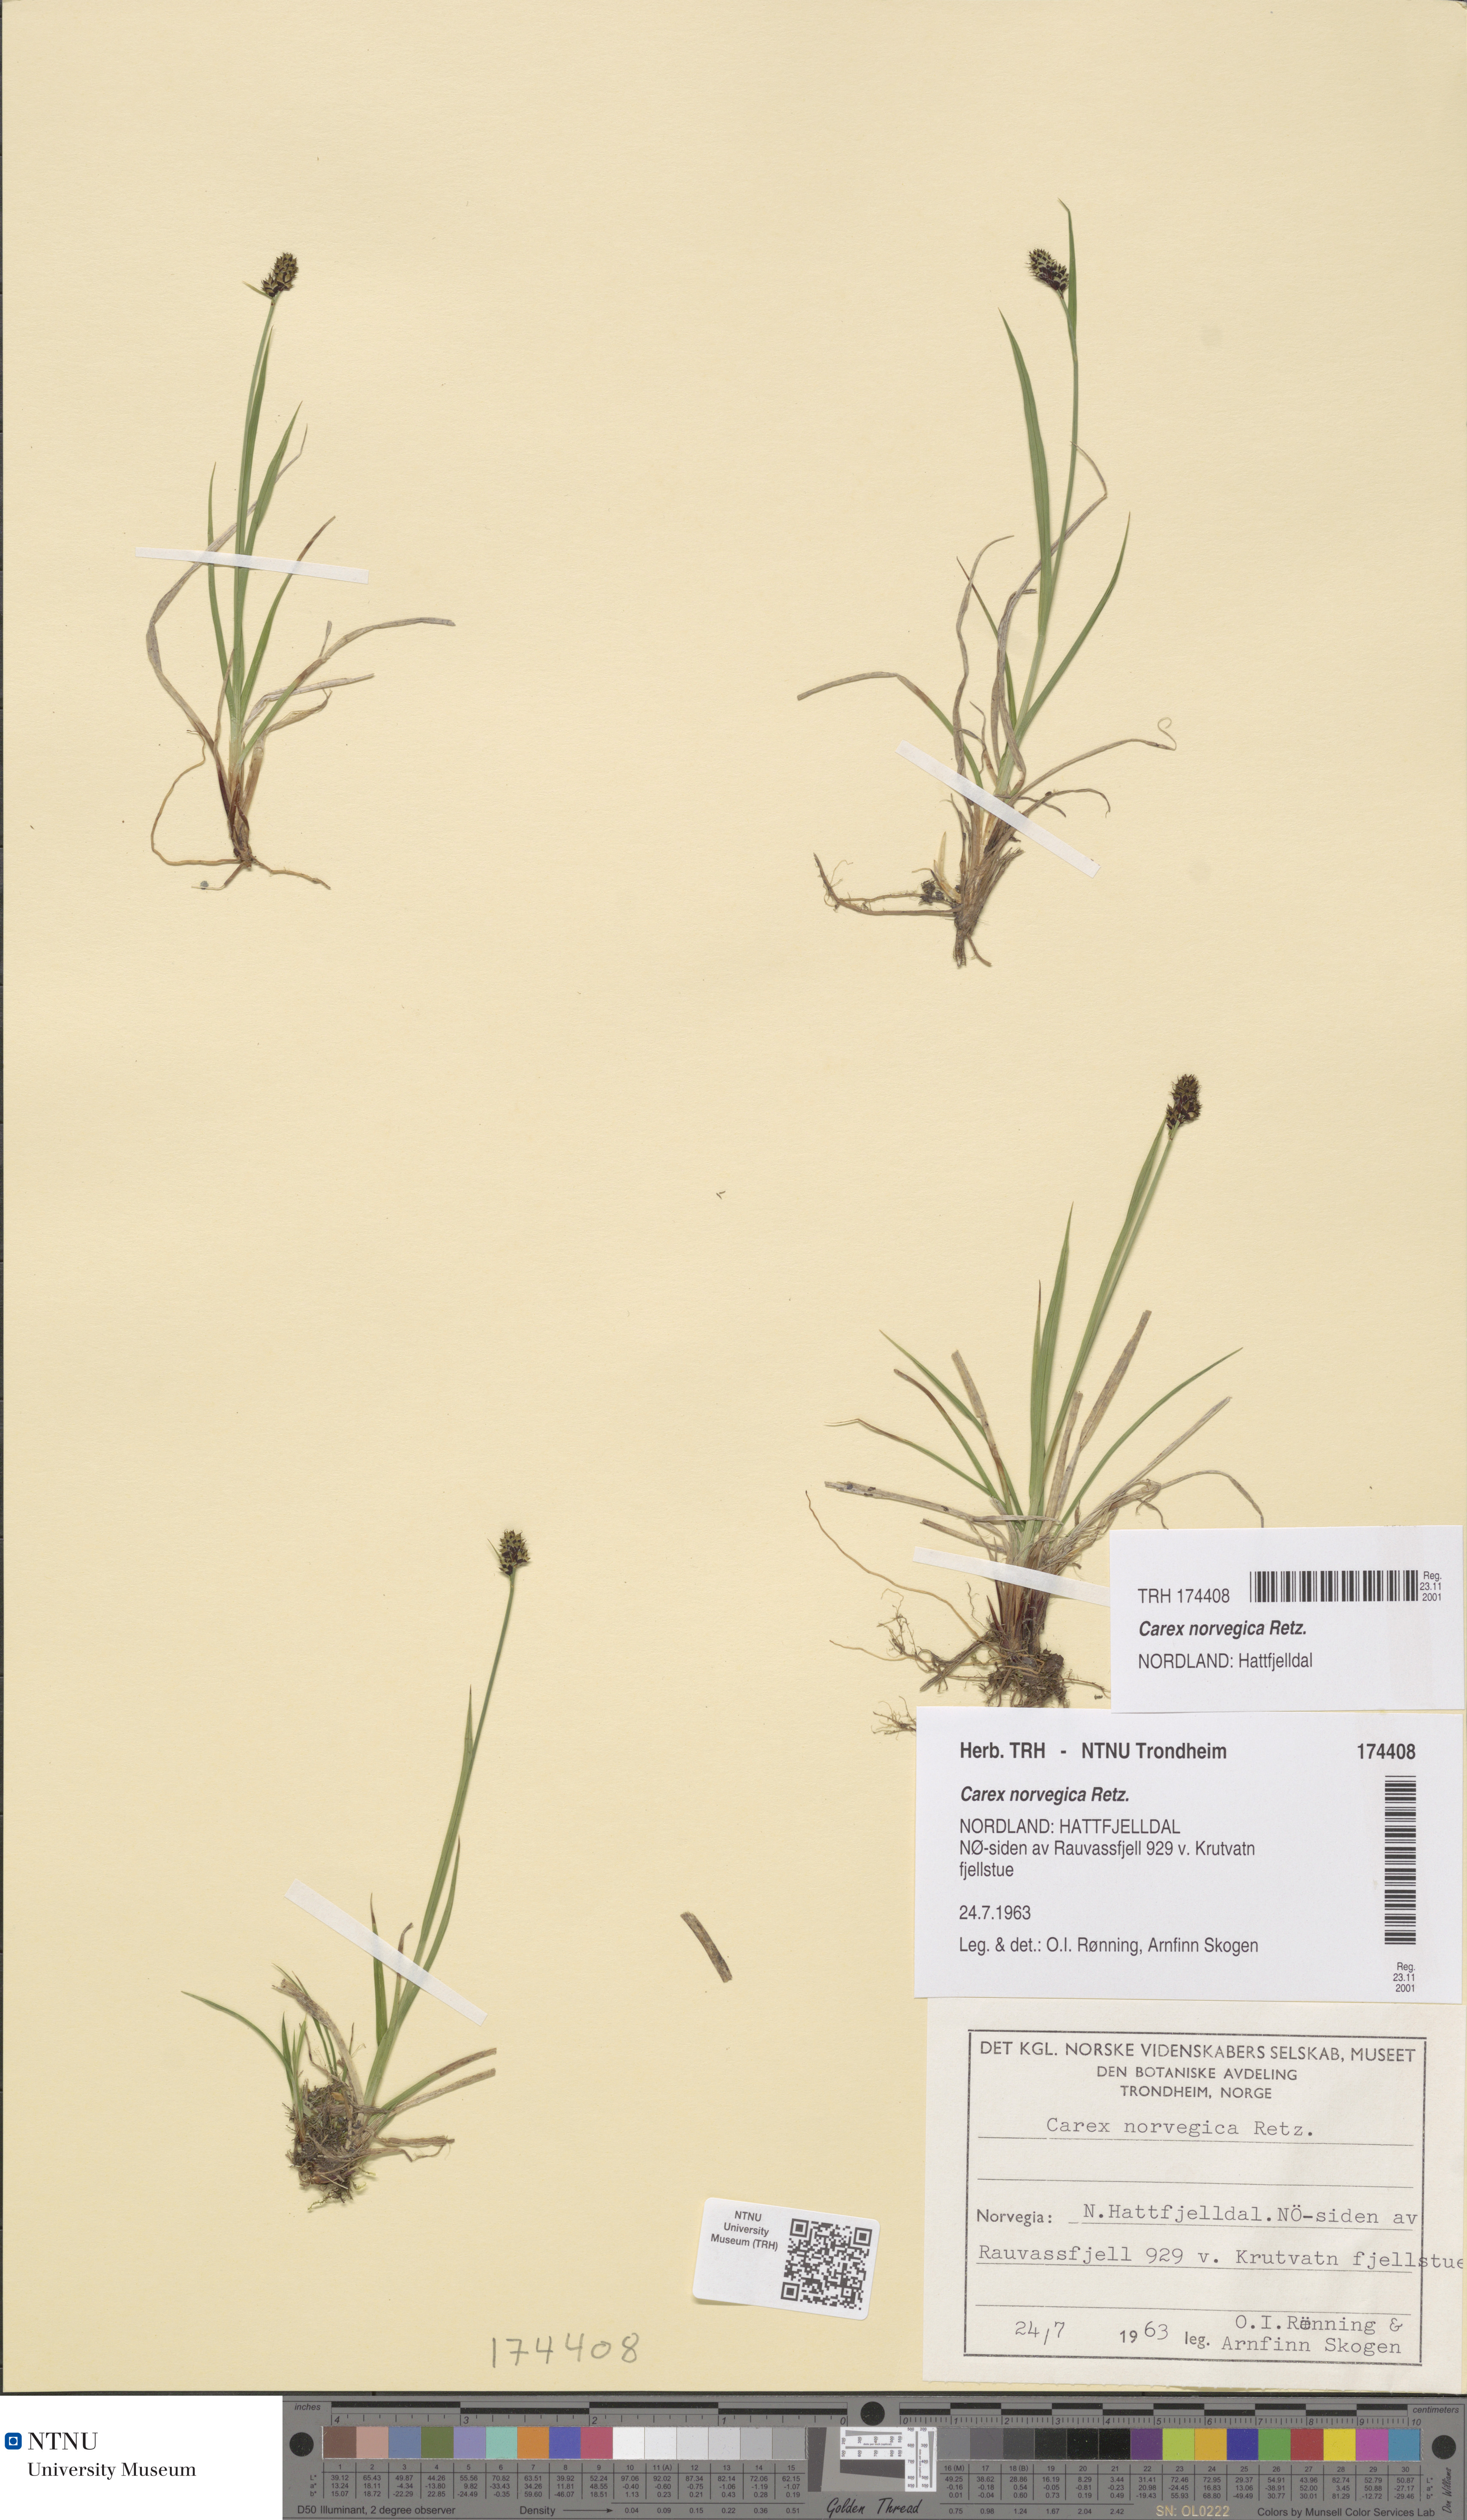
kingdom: Plantae
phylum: Tracheophyta
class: Liliopsida
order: Poales
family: Cyperaceae
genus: Carex
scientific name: Carex norvegica
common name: Close-headed alpine-sedge
